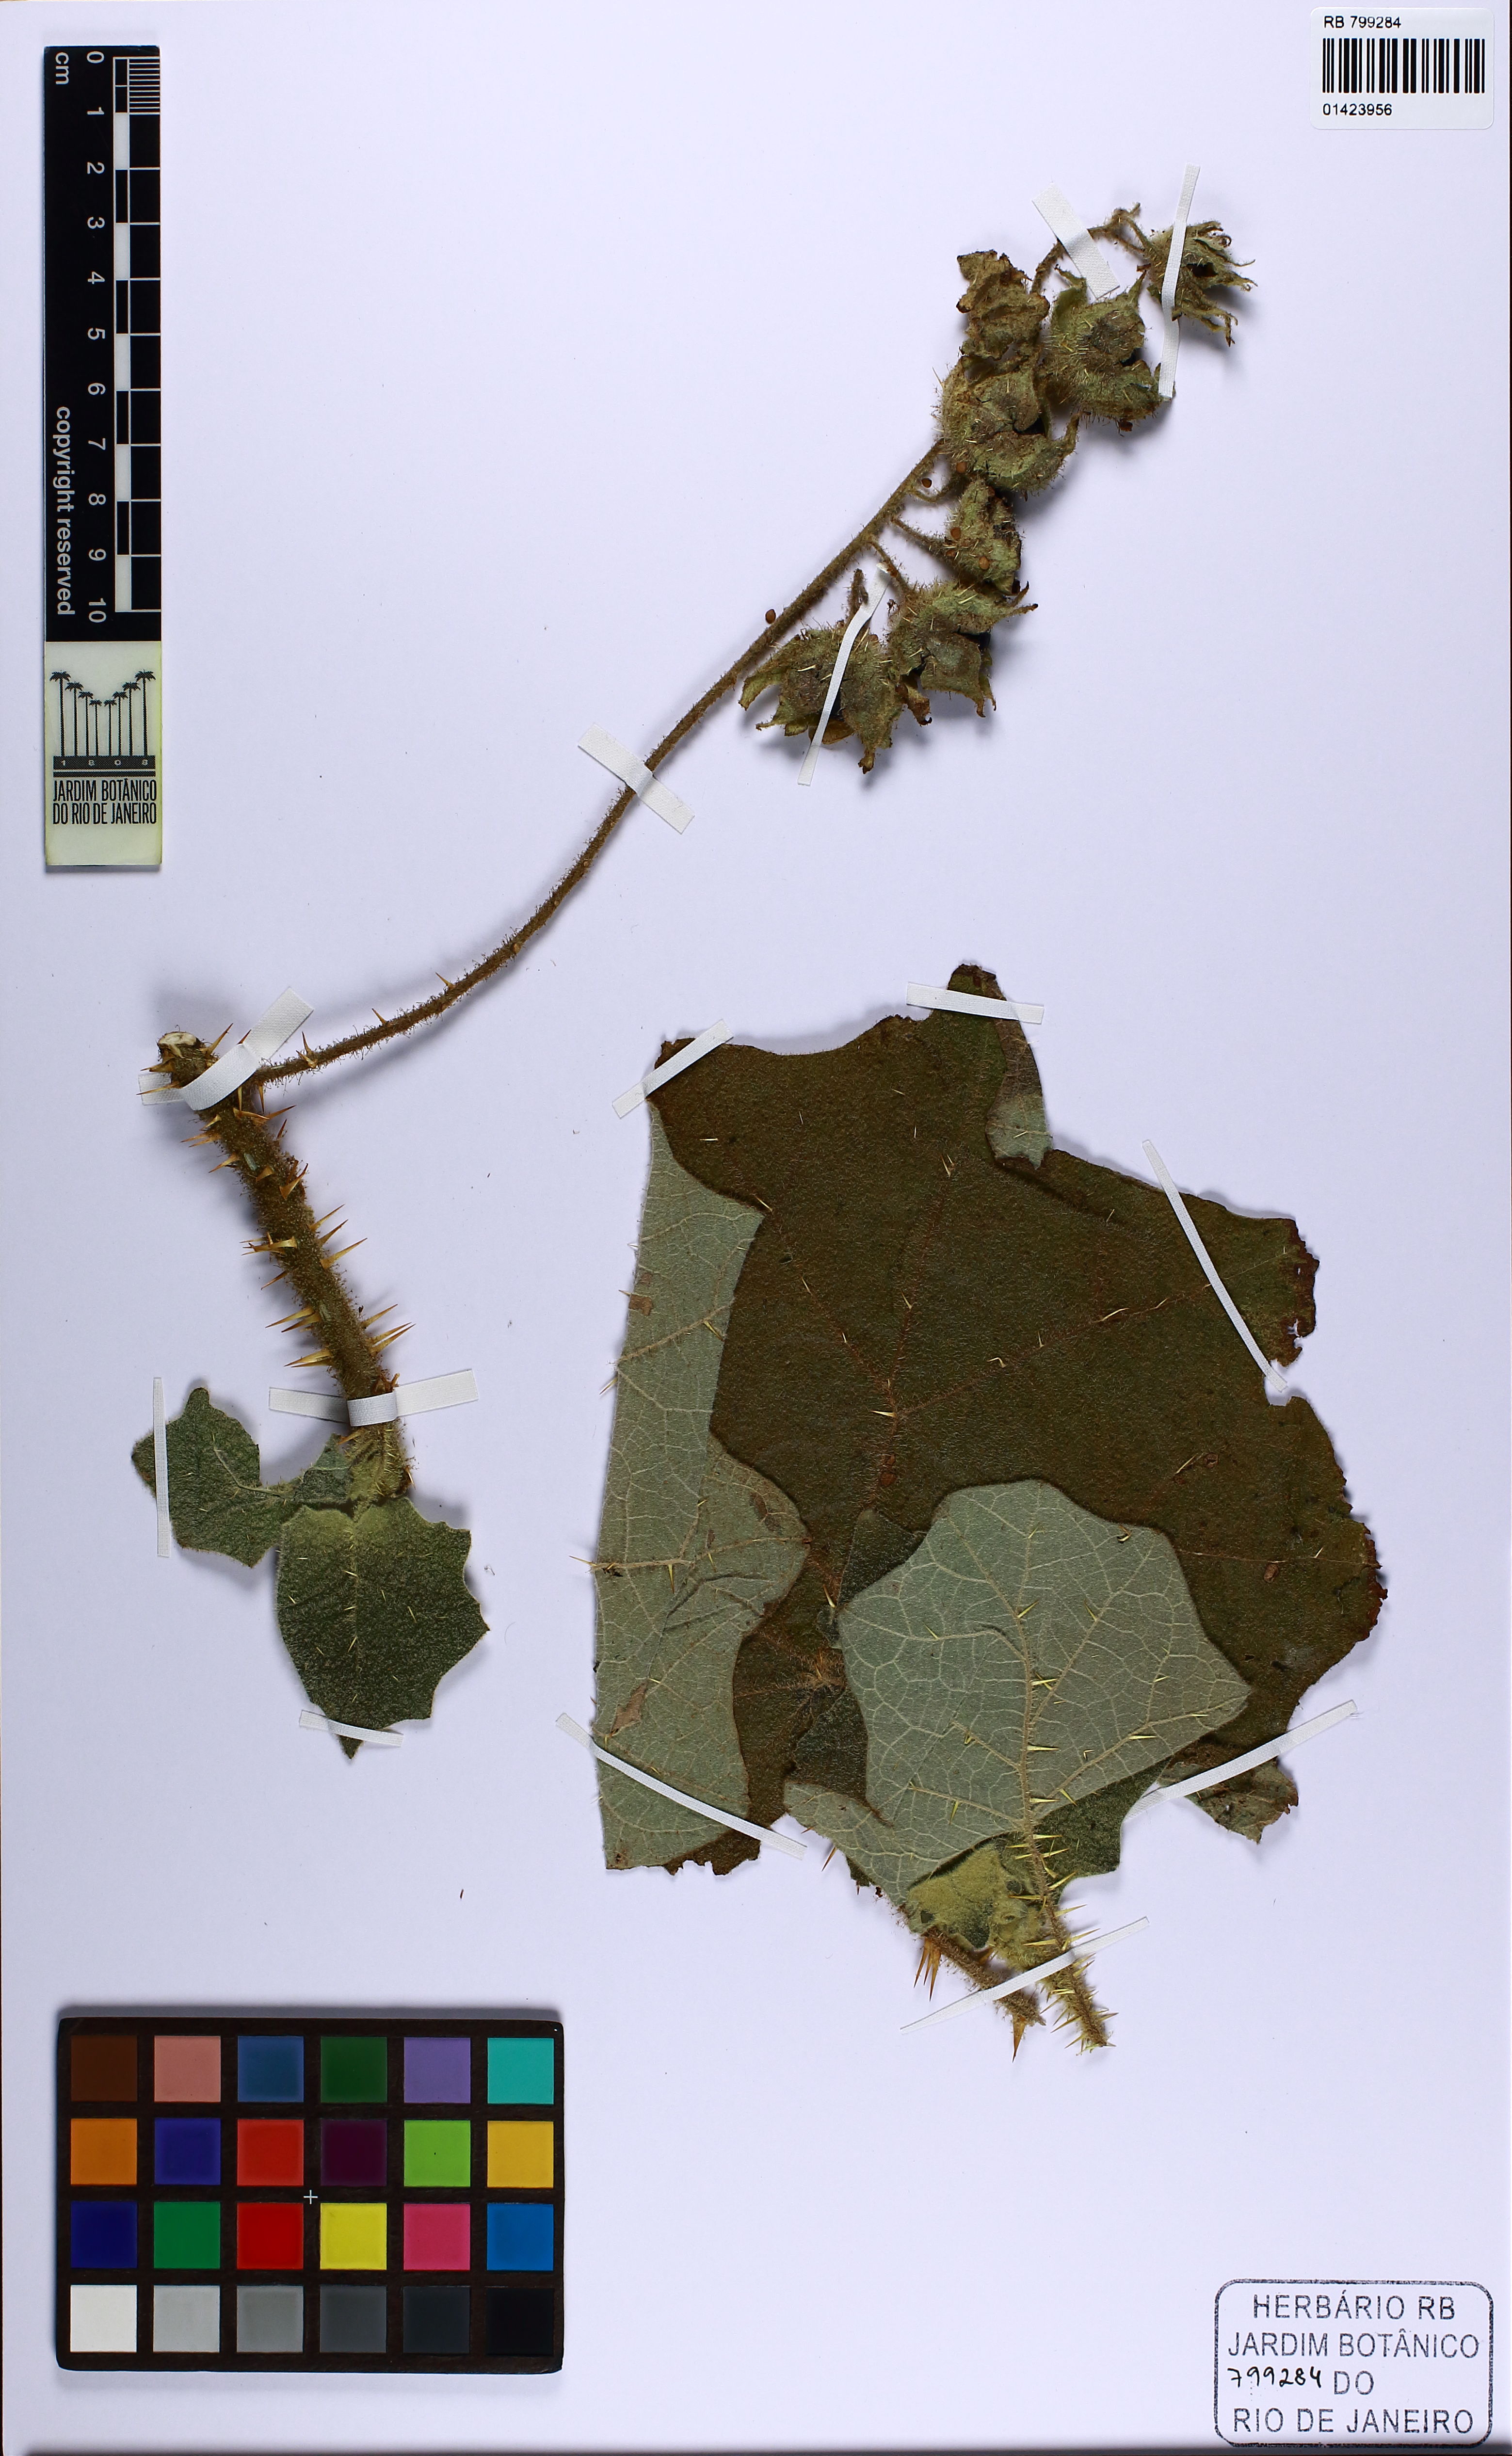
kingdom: Plantae
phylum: Tracheophyta
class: Magnoliopsida
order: Solanales
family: Solanaceae
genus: Solanum
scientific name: Solanum kollastrum
